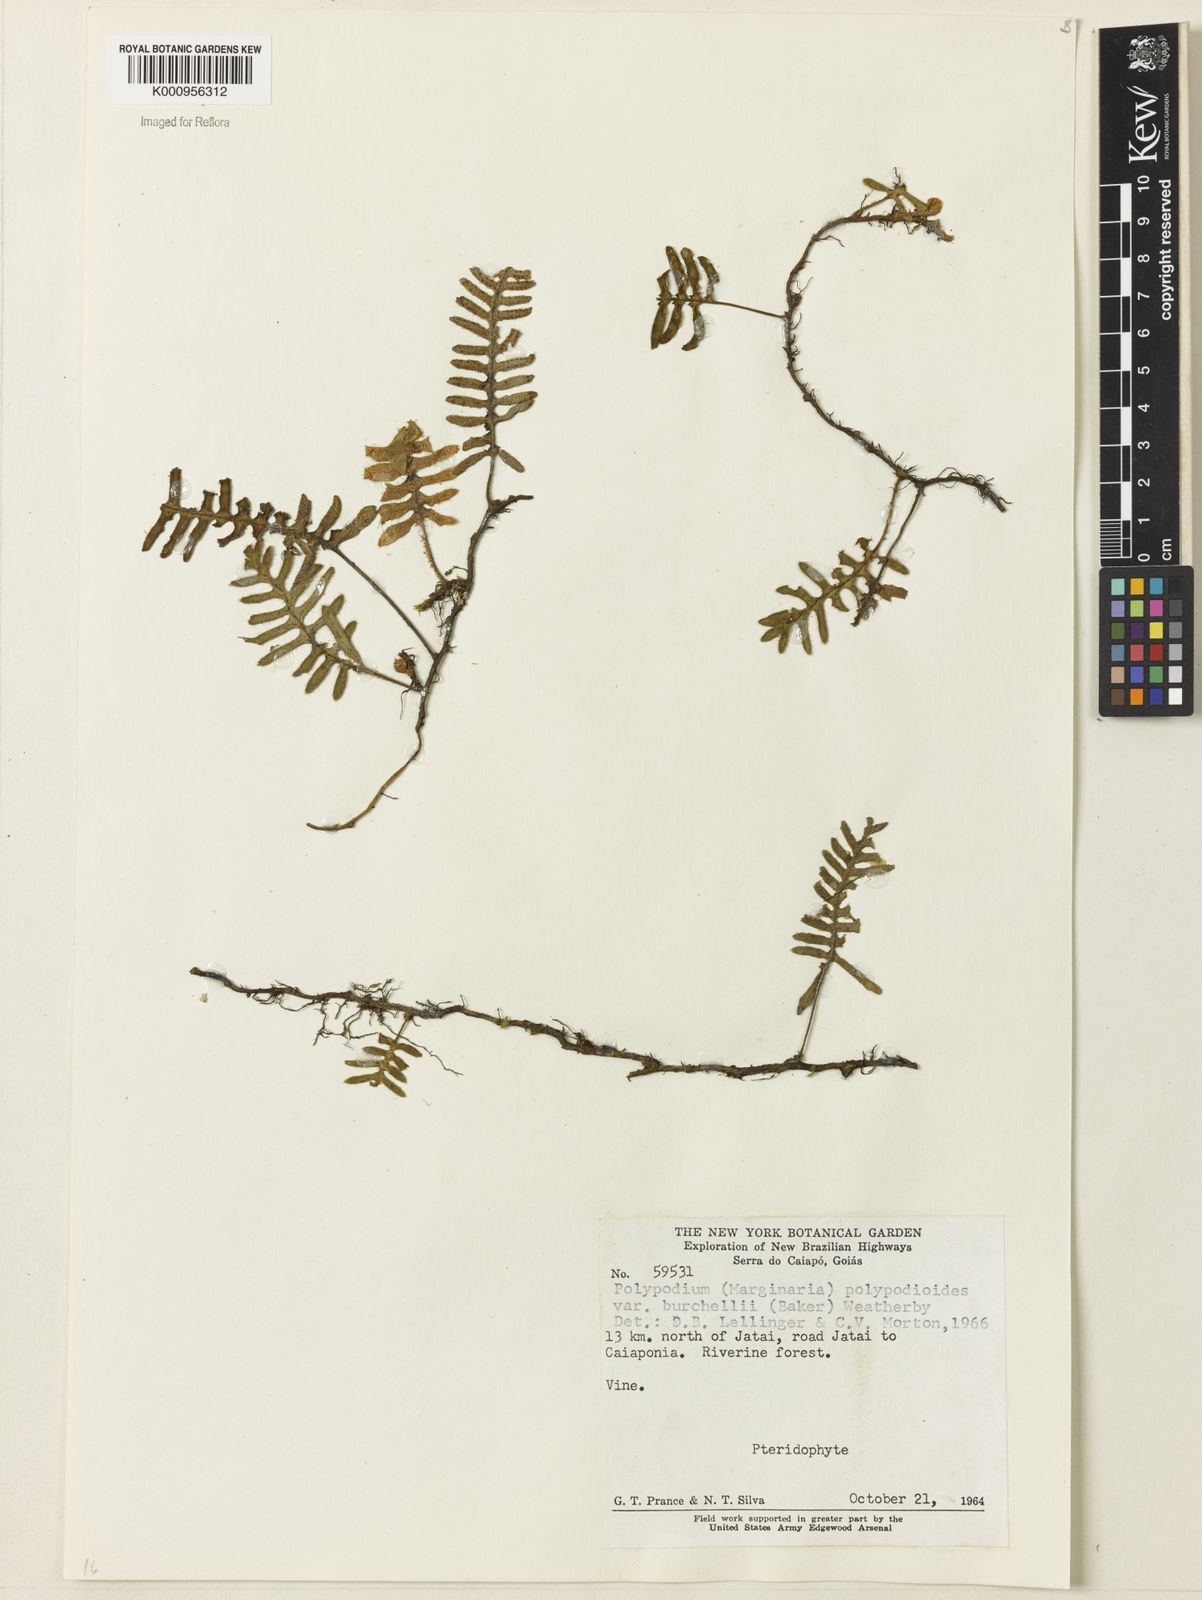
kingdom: Plantae
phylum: Tracheophyta
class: Polypodiopsida
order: Polypodiales
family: Polypodiaceae
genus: Pleopeltis
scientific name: Pleopeltis burchellii
